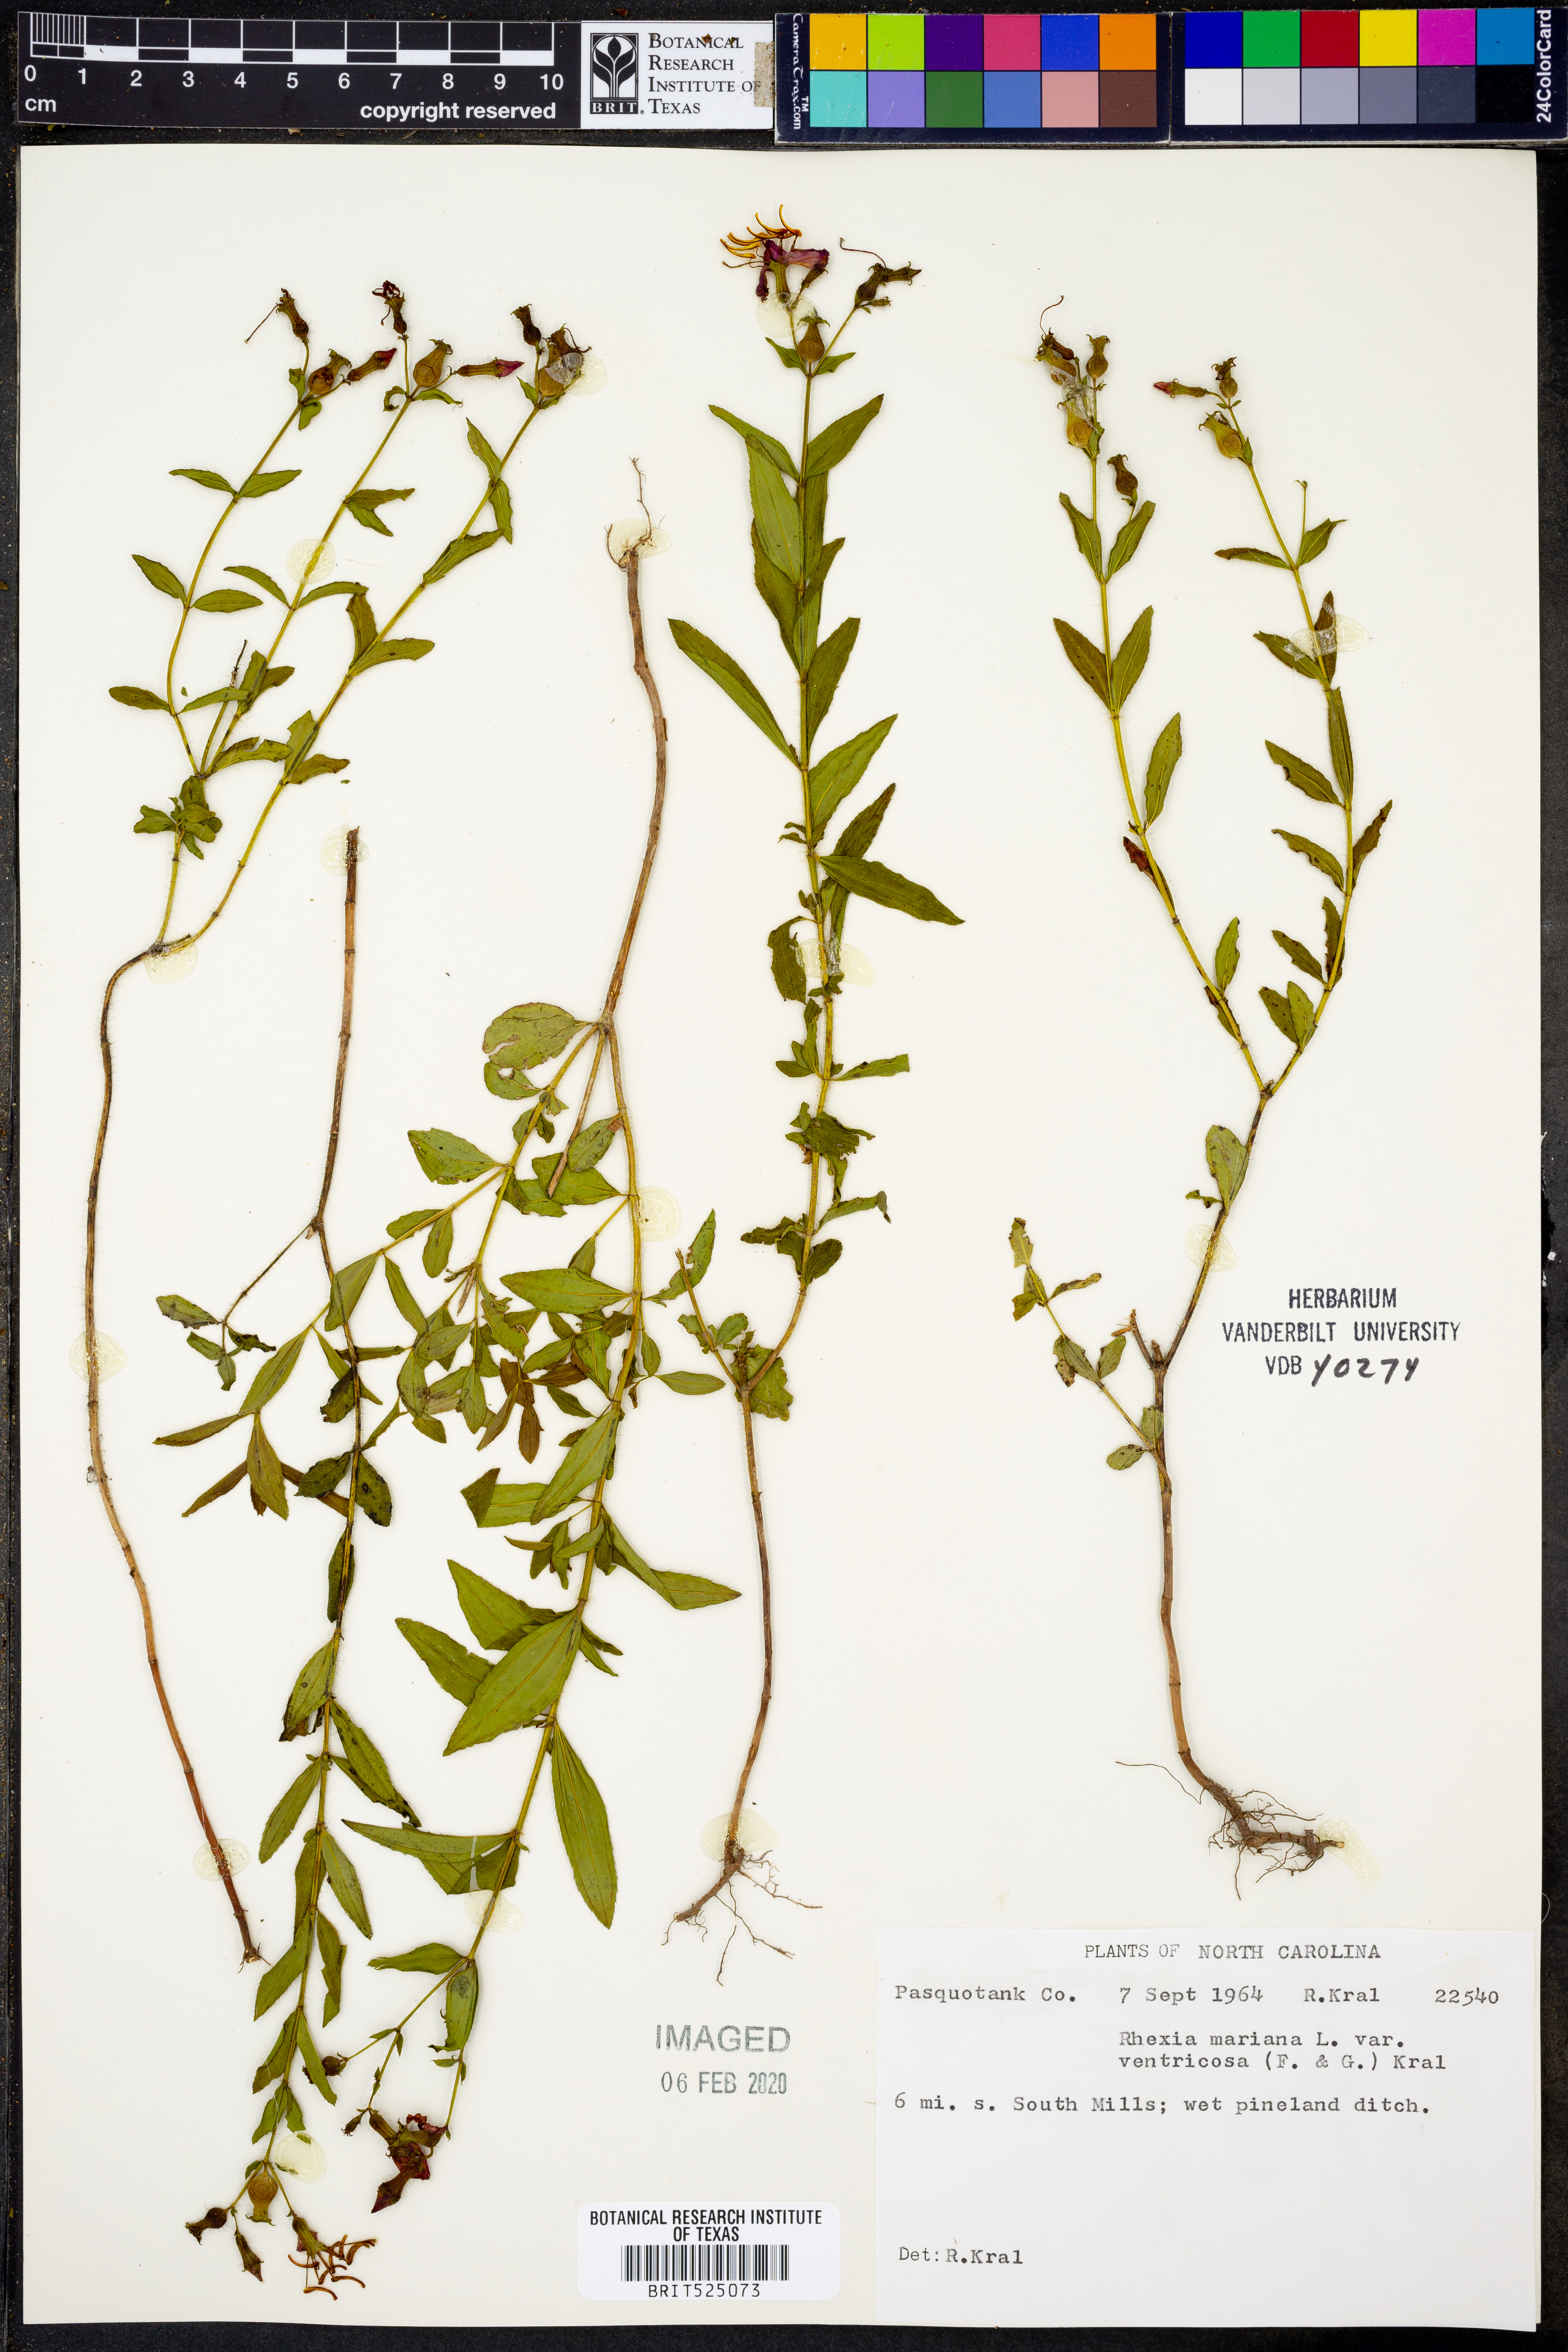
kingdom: Plantae
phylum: Tracheophyta
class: Magnoliopsida
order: Myrtales
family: Melastomataceae
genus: Rhexia
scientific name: Rhexia ventricosa
